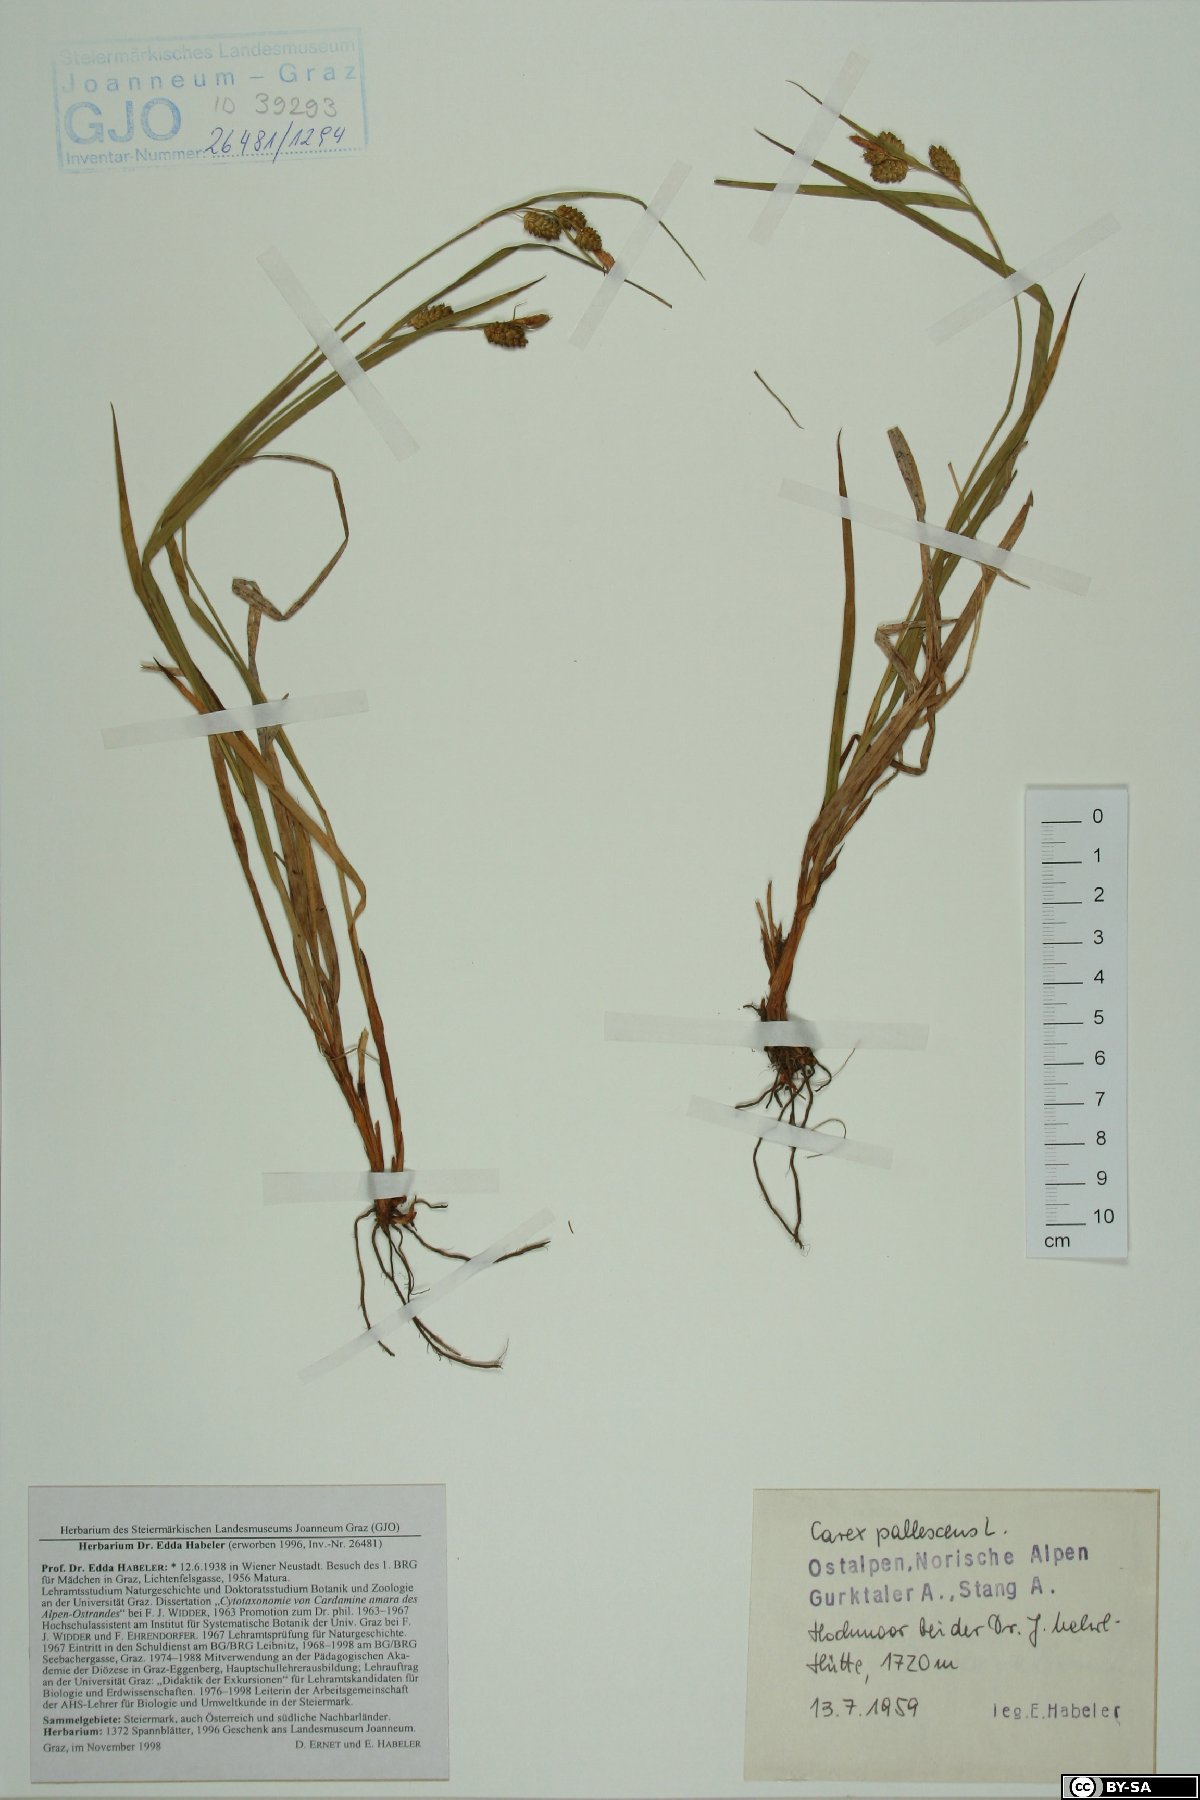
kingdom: Plantae
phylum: Tracheophyta
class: Liliopsida
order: Poales
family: Cyperaceae
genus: Carex
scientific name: Carex pallescens
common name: Pale sedge
